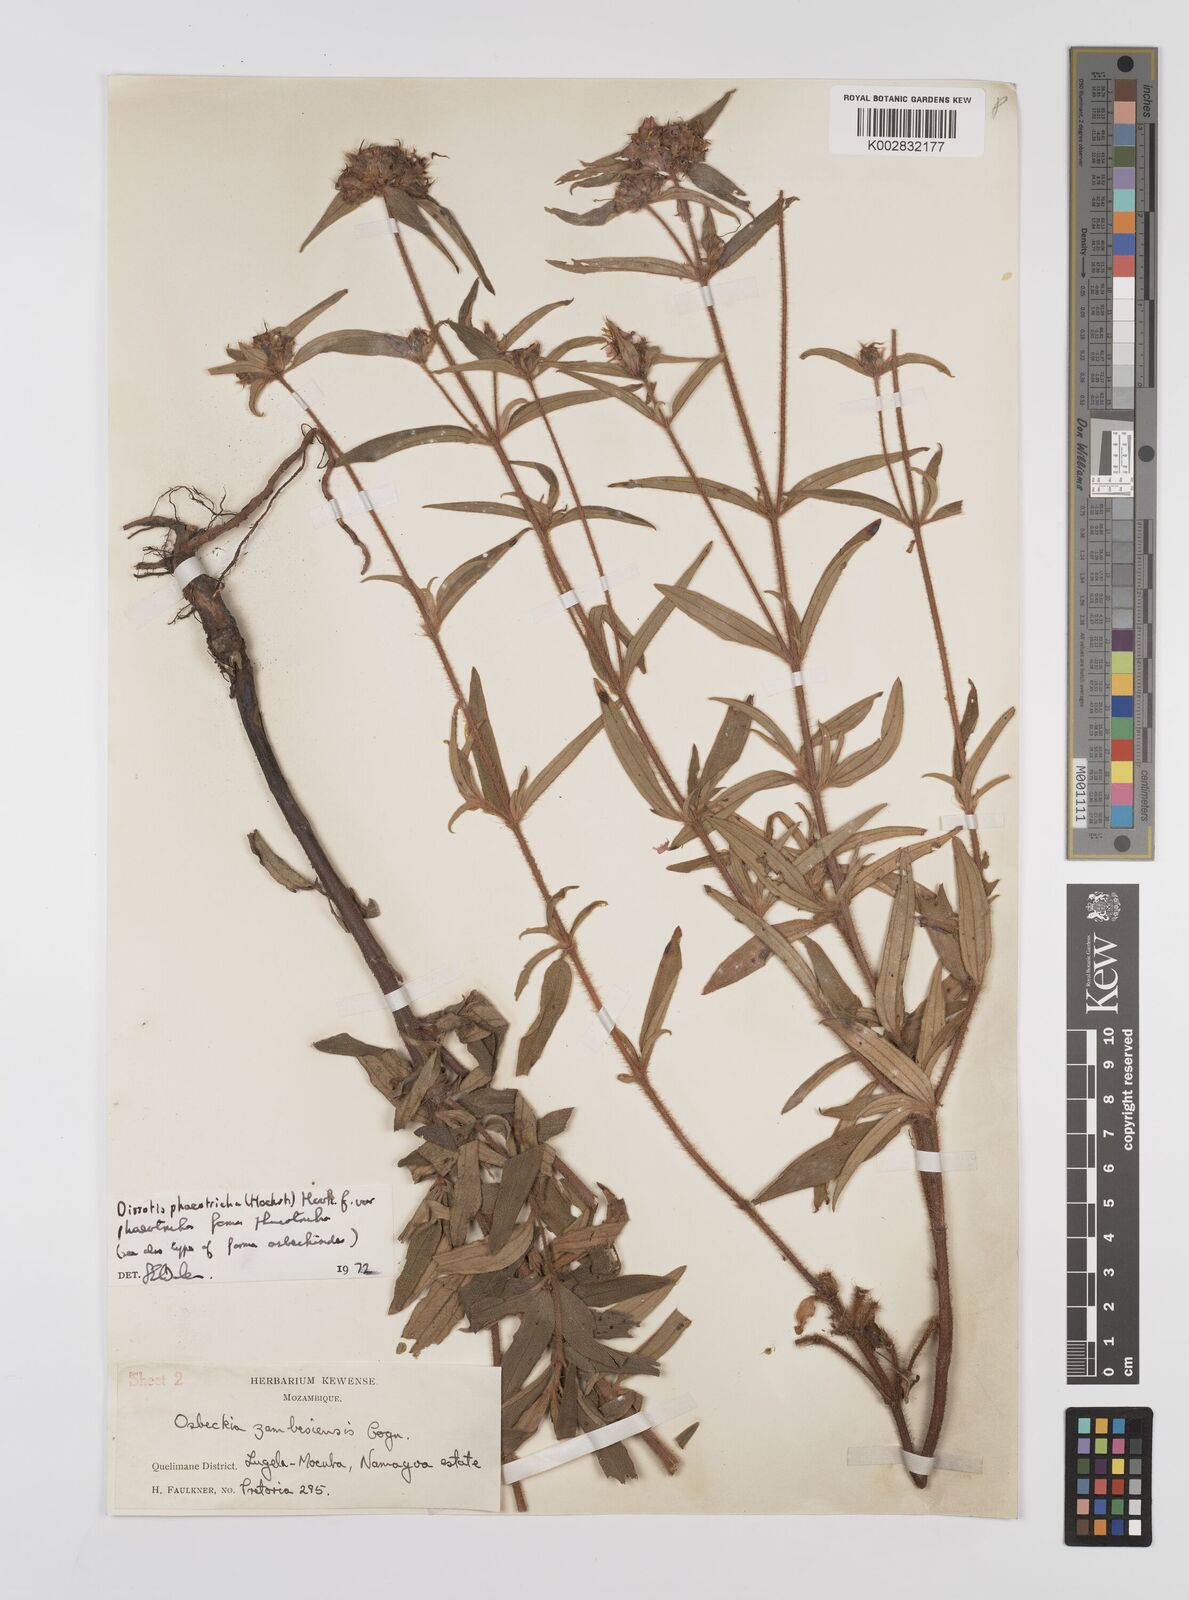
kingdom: Plantae
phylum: Tracheophyta
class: Magnoliopsida
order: Myrtales
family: Melastomataceae
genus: Antherotoma
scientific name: Antherotoma phaeotricha
